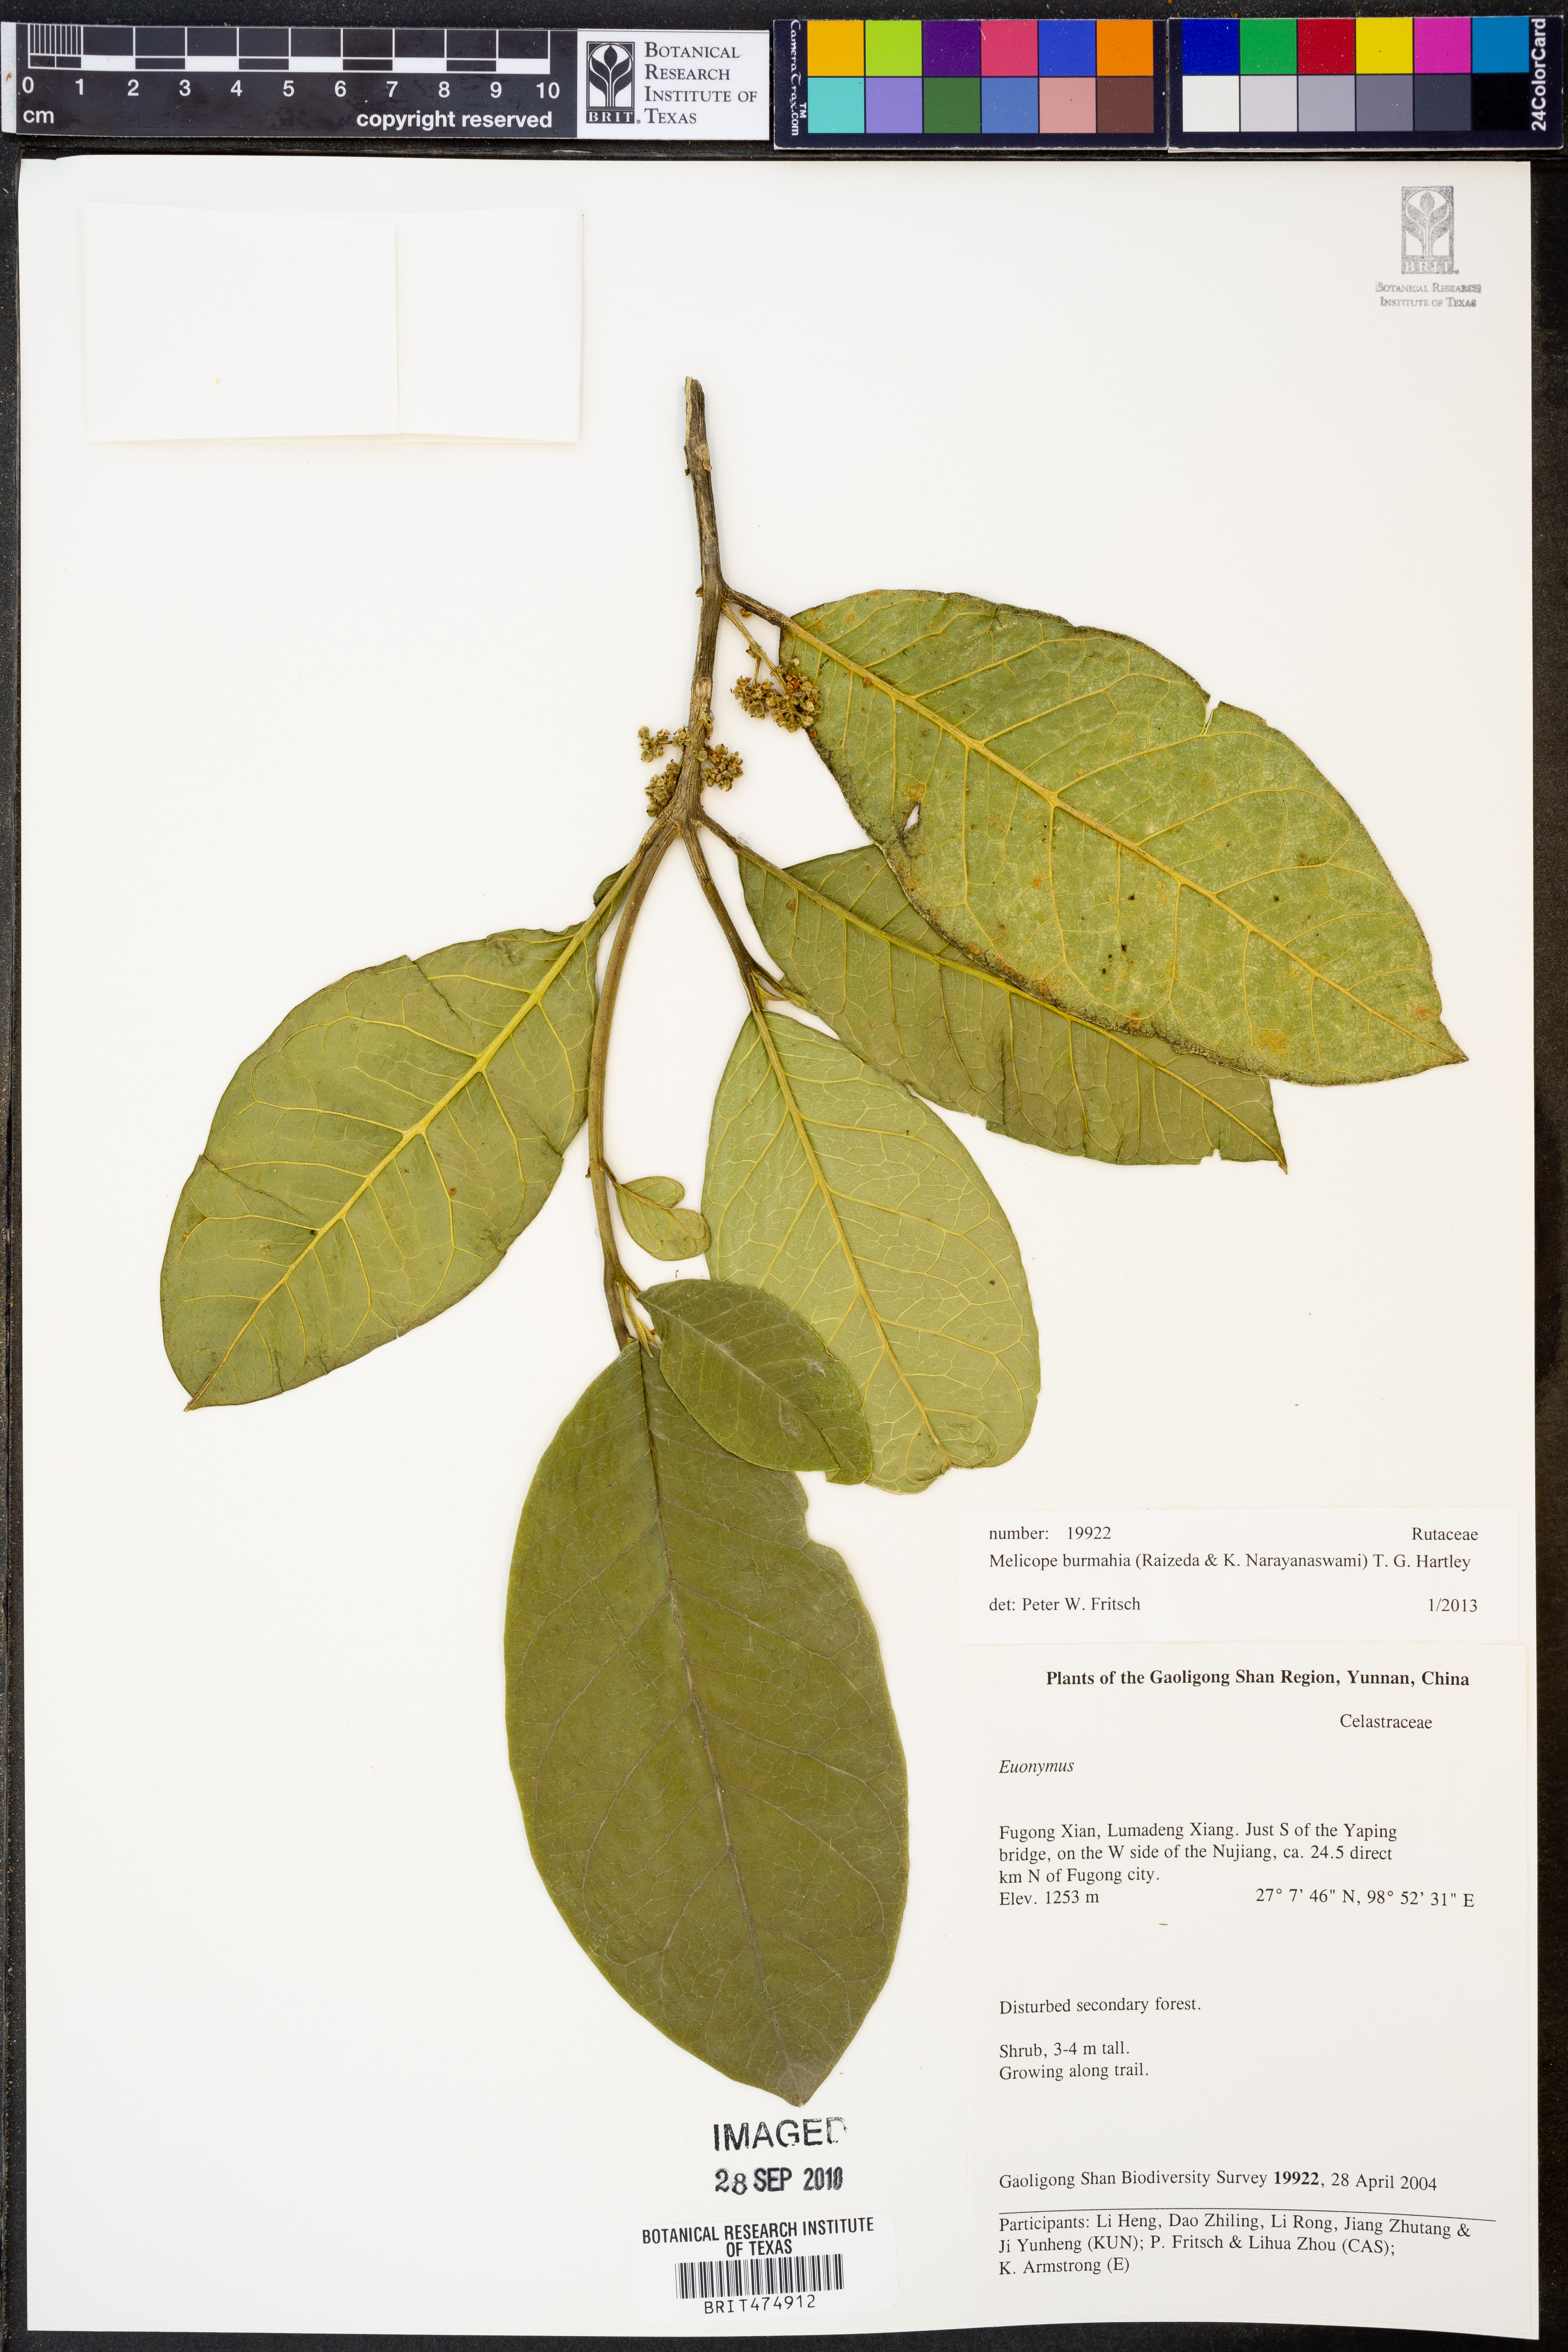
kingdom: Plantae
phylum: Tracheophyta
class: Magnoliopsida
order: Sapindales
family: Rutaceae
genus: Melicope
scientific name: Melicope burmahia
